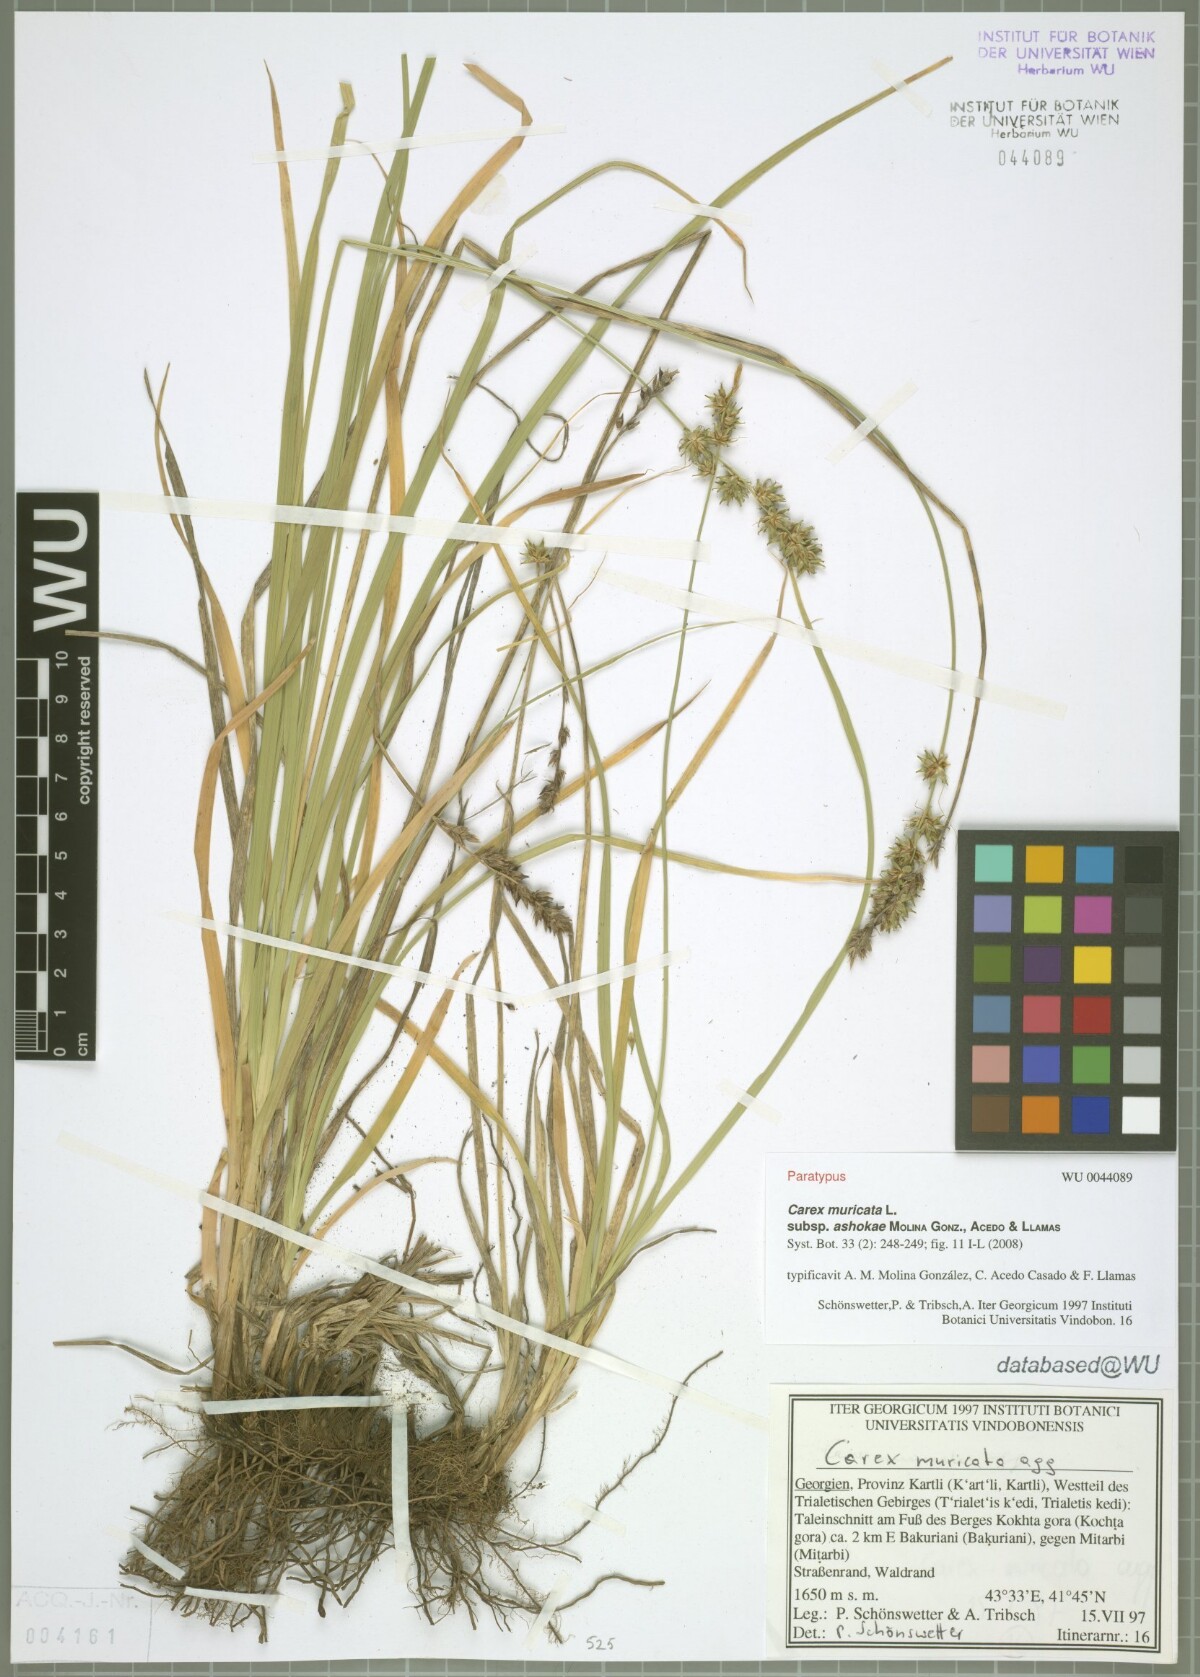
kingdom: Plantae
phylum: Tracheophyta
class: Liliopsida
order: Poales
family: Cyperaceae
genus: Carex
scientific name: Carex muricata
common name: Rough sedge
